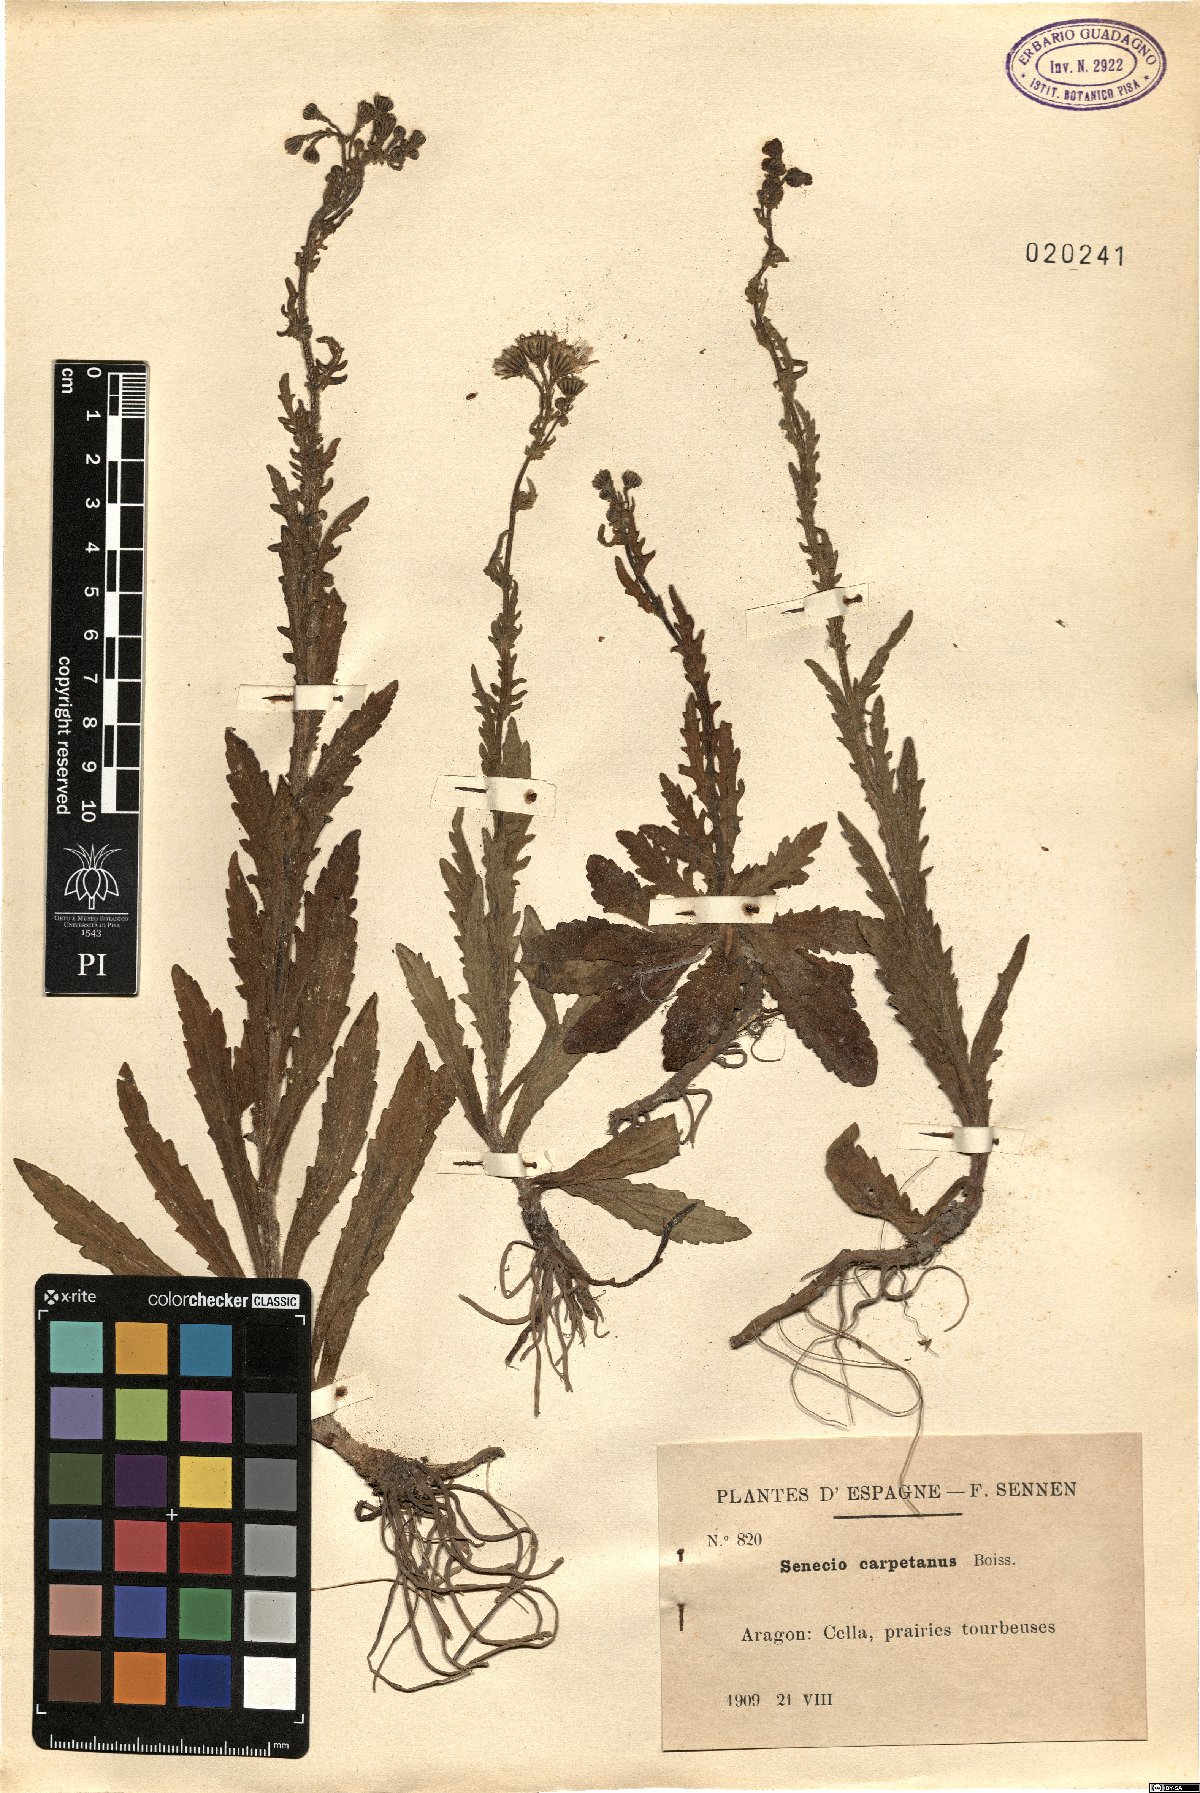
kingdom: Plantae
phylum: Tracheophyta
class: Magnoliopsida
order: Asterales
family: Asteraceae
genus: Senecio
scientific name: Senecio carpetanus
